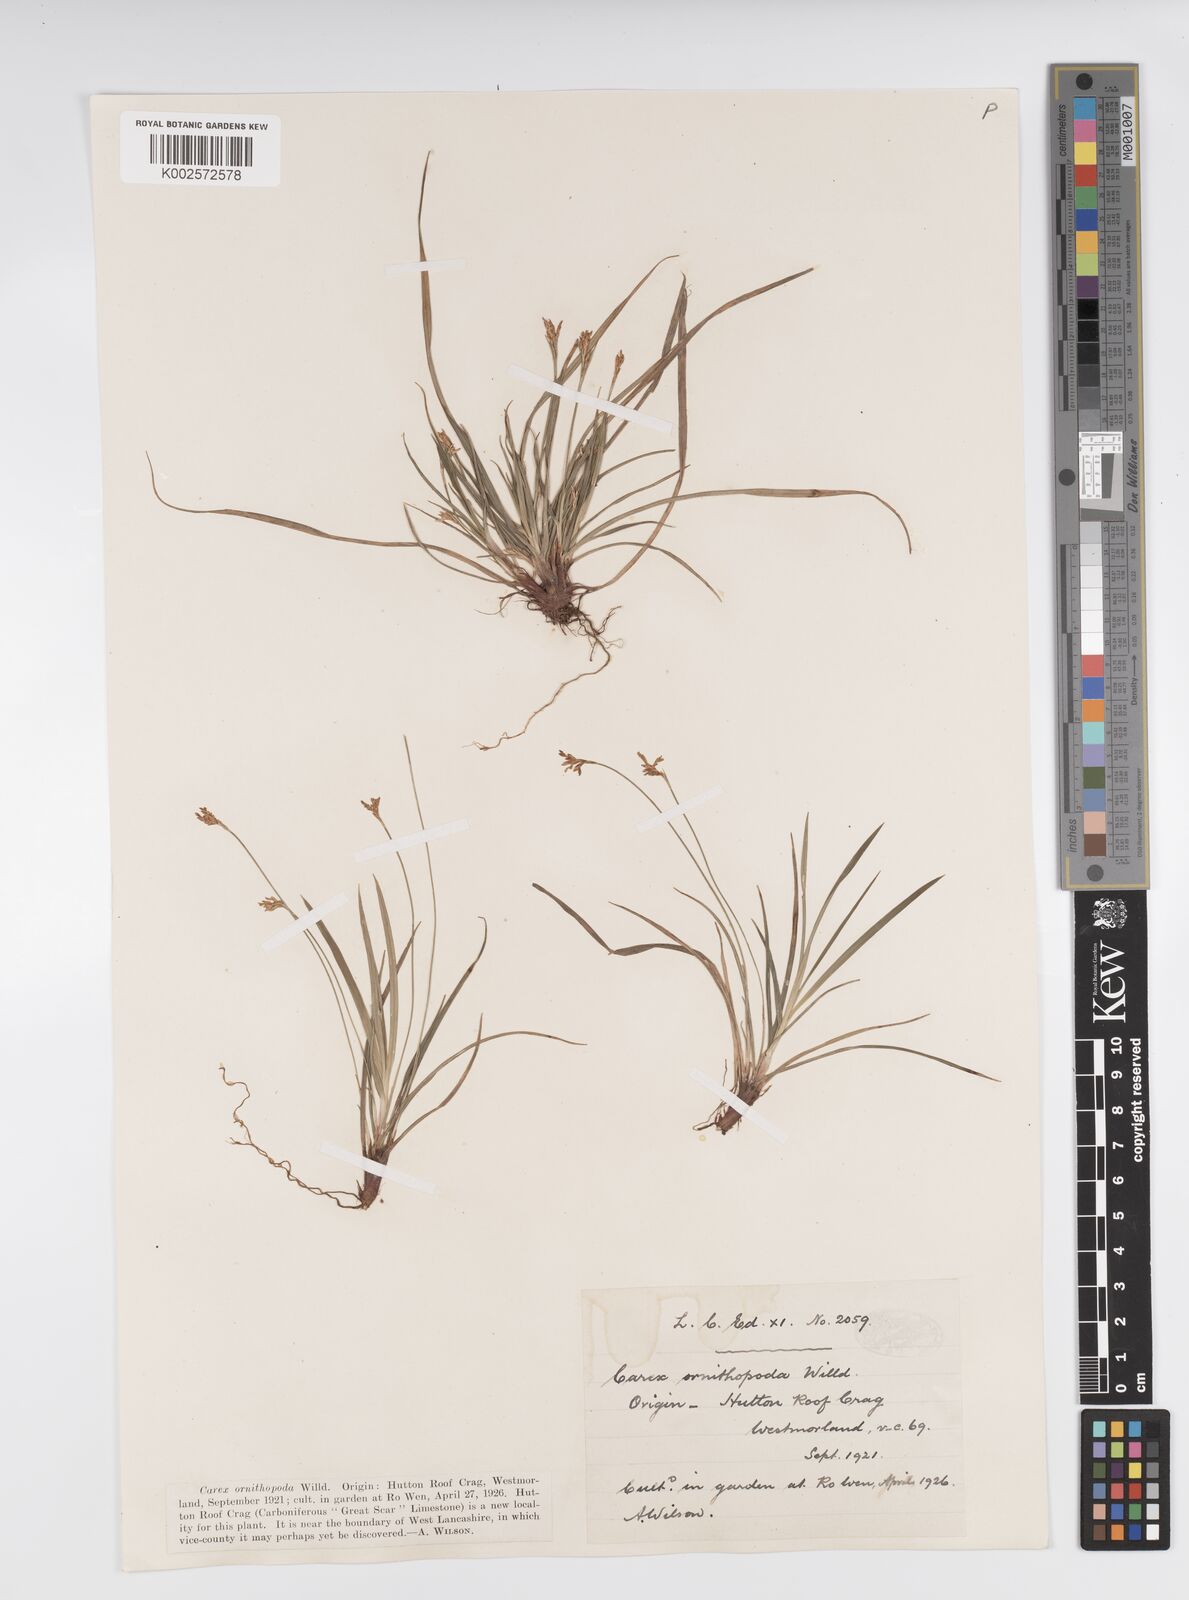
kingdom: Plantae
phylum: Tracheophyta
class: Liliopsida
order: Poales
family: Cyperaceae
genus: Carex
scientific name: Carex ornithopoda
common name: Bird's-foot sedge
